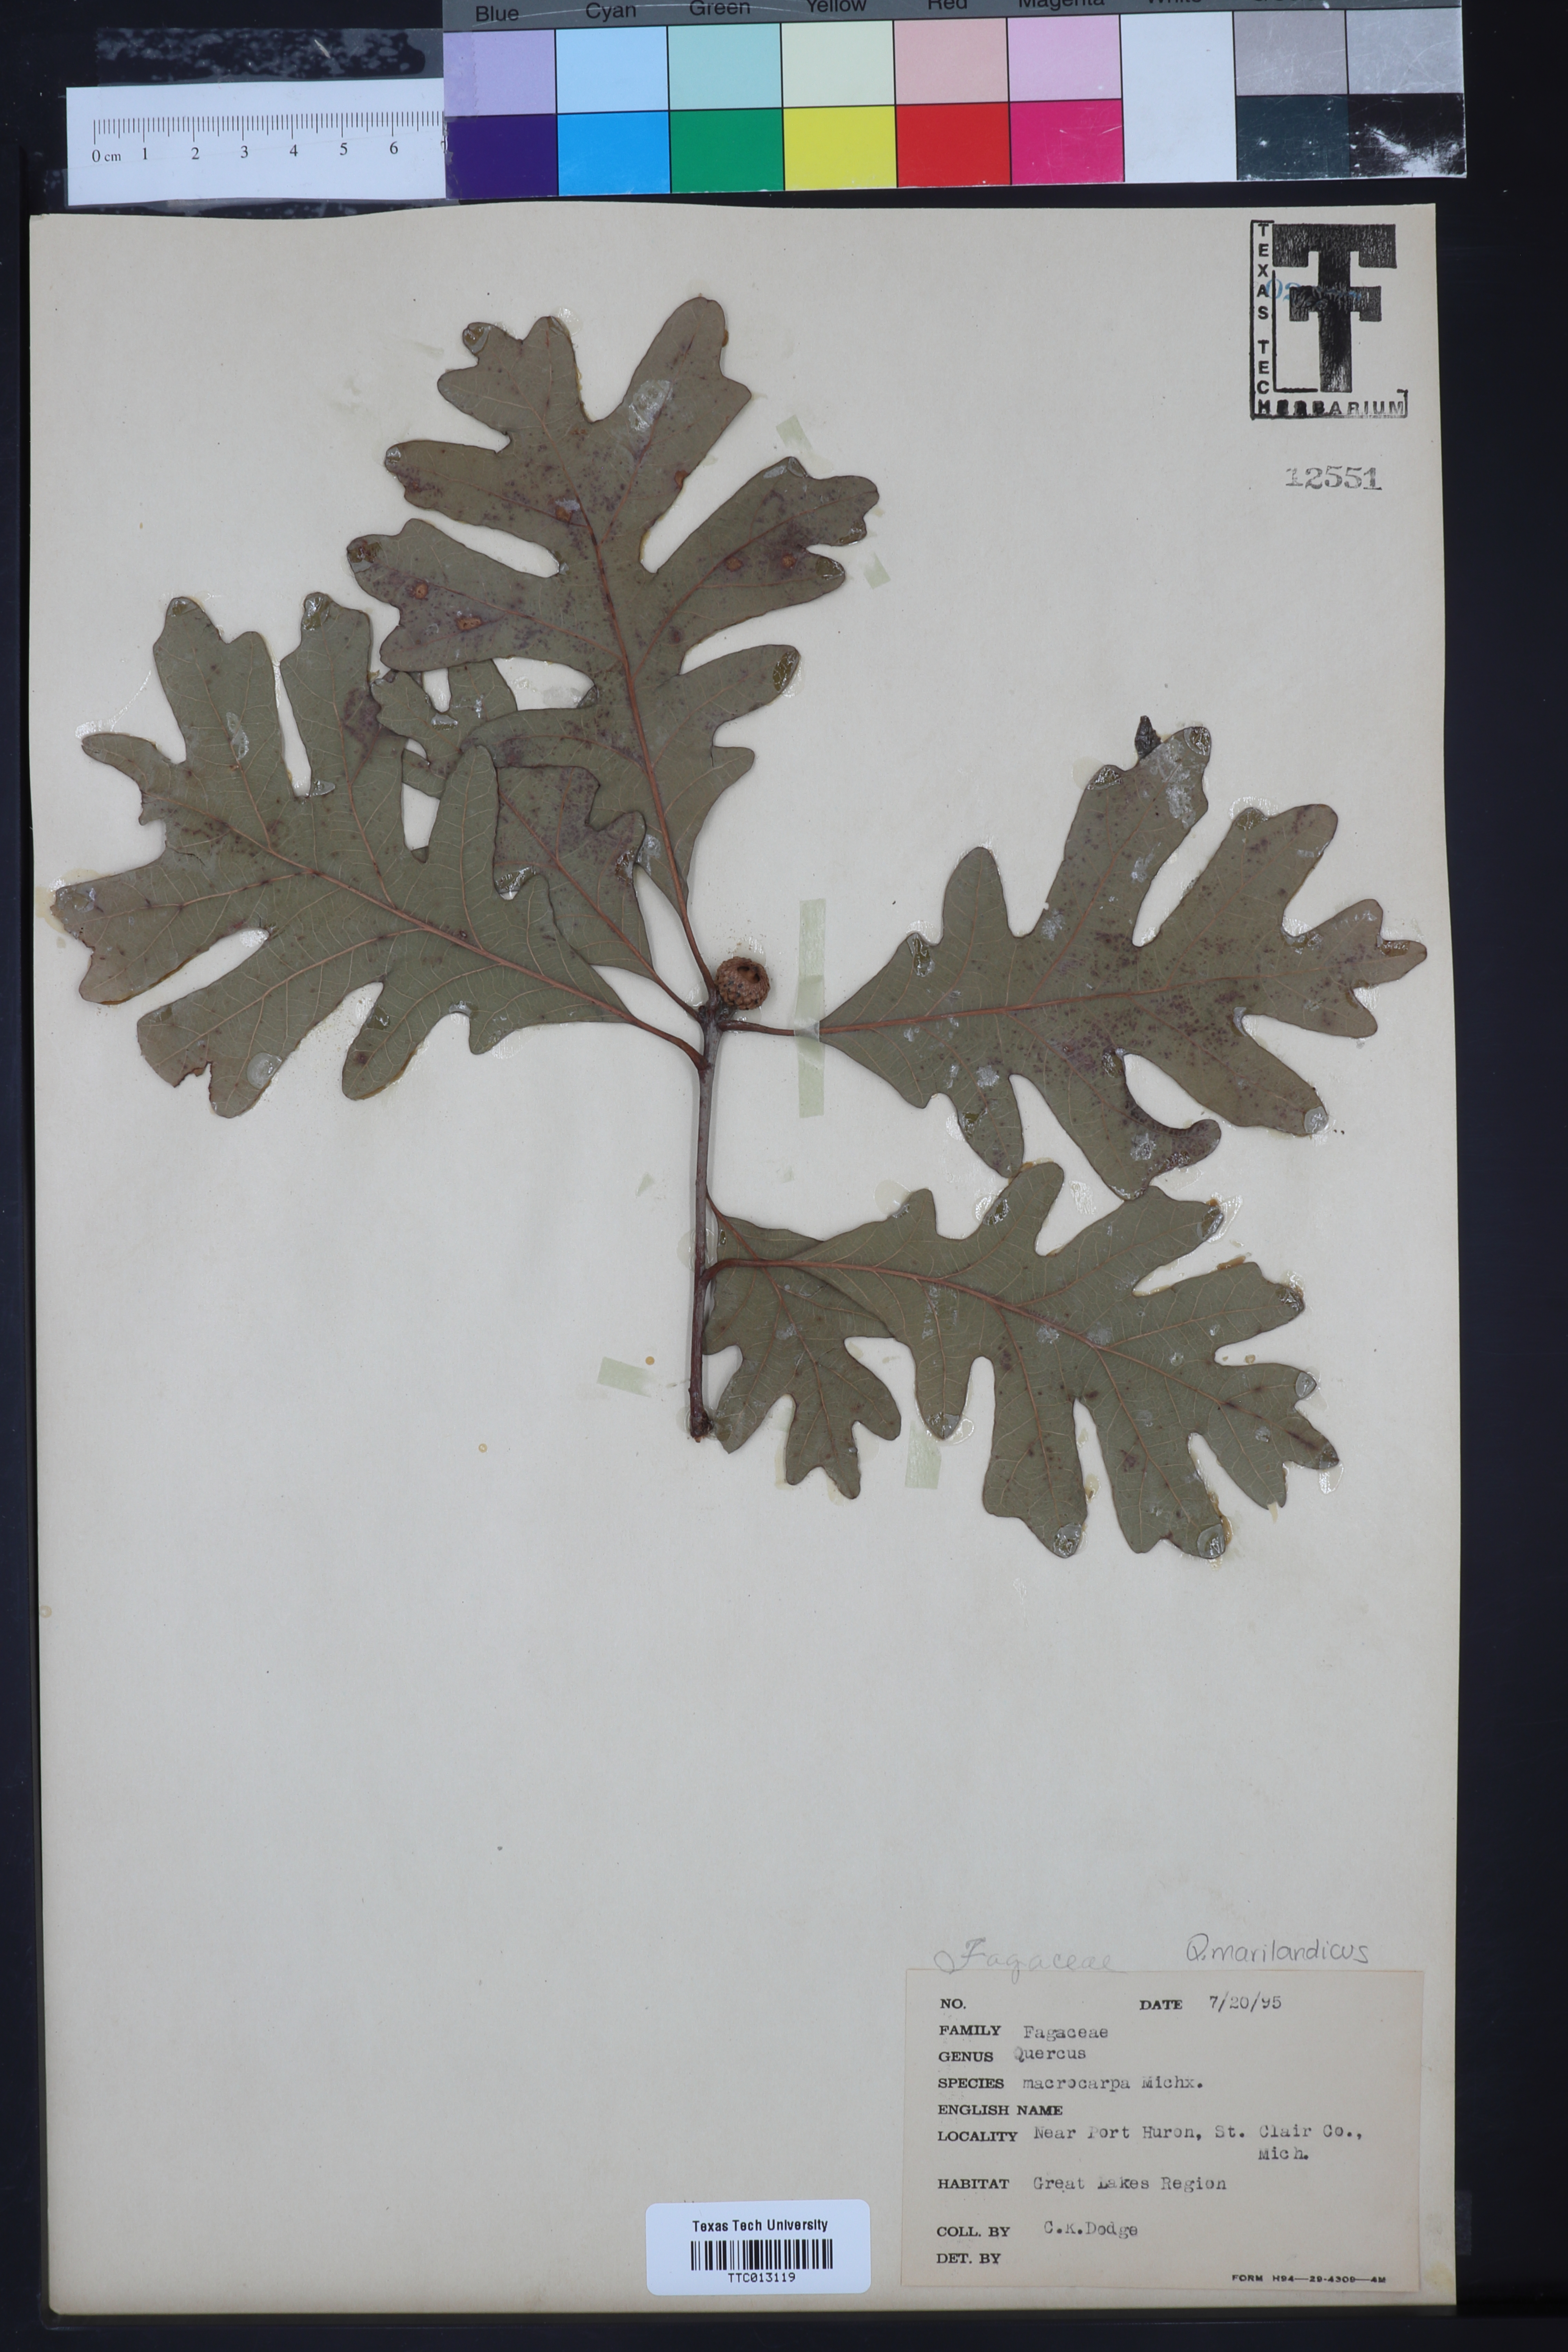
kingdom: Plantae
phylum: Tracheophyta
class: Magnoliopsida
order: Fagales
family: Fagaceae
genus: Quercus
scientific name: Quercus macrocarpa
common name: Bur oak
